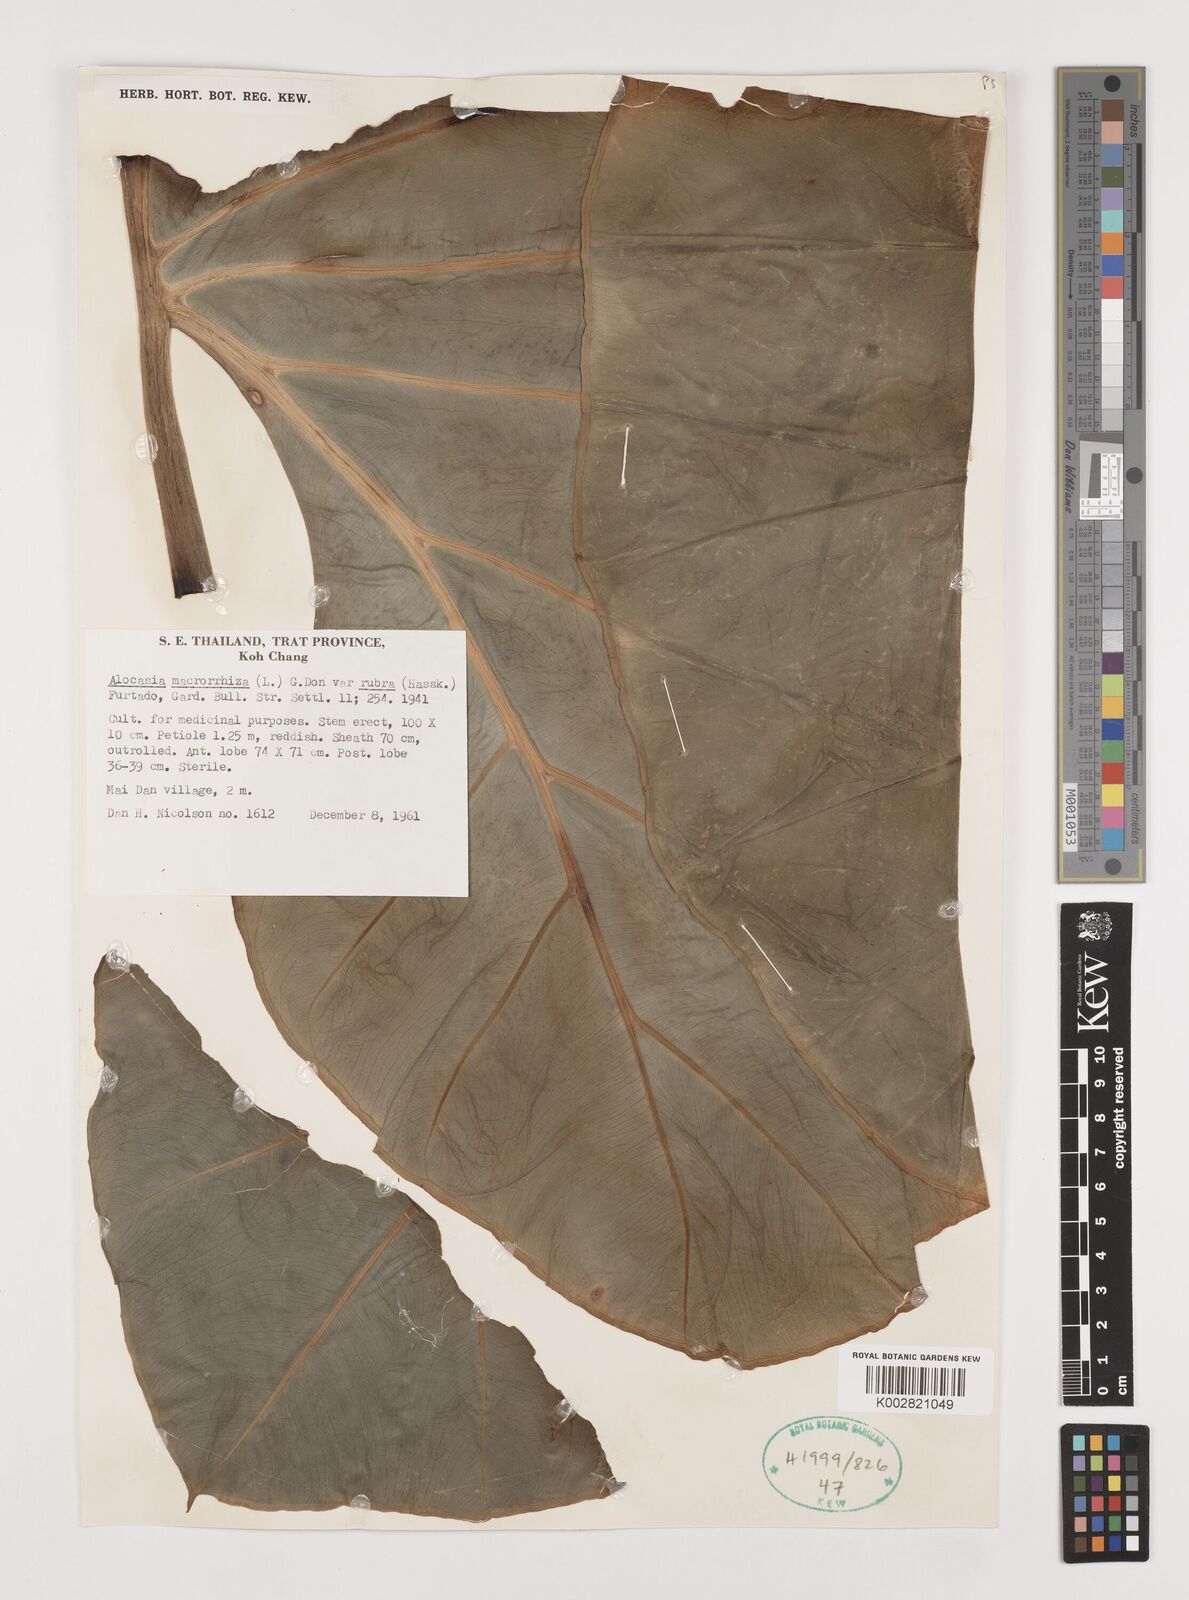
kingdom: Plantae
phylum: Tracheophyta
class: Liliopsida
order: Alismatales
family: Araceae
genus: Alocasia
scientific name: Alocasia macrorrhizos
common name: Giant taro
